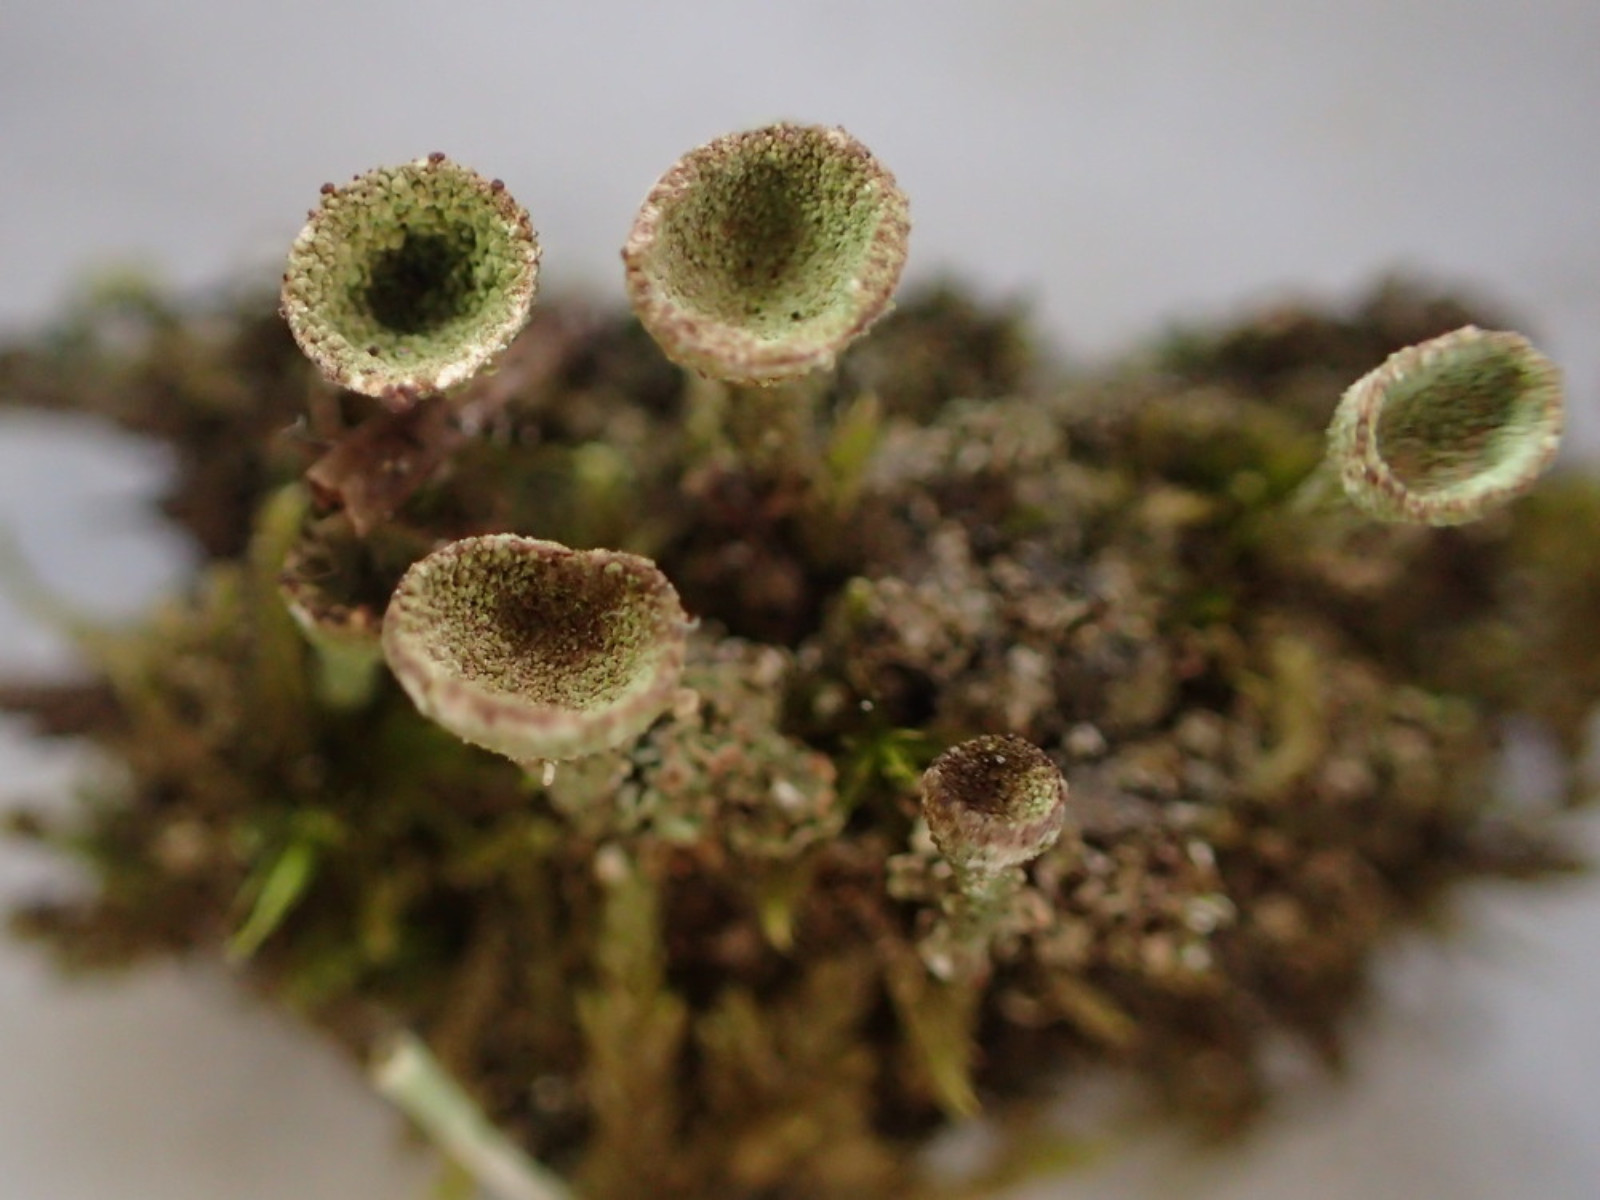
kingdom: Fungi
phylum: Ascomycota
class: Lecanoromycetes
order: Lecanorales
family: Cladoniaceae
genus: Cladonia
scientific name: Cladonia novochlorophaea
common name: sortbrun bægerlav
